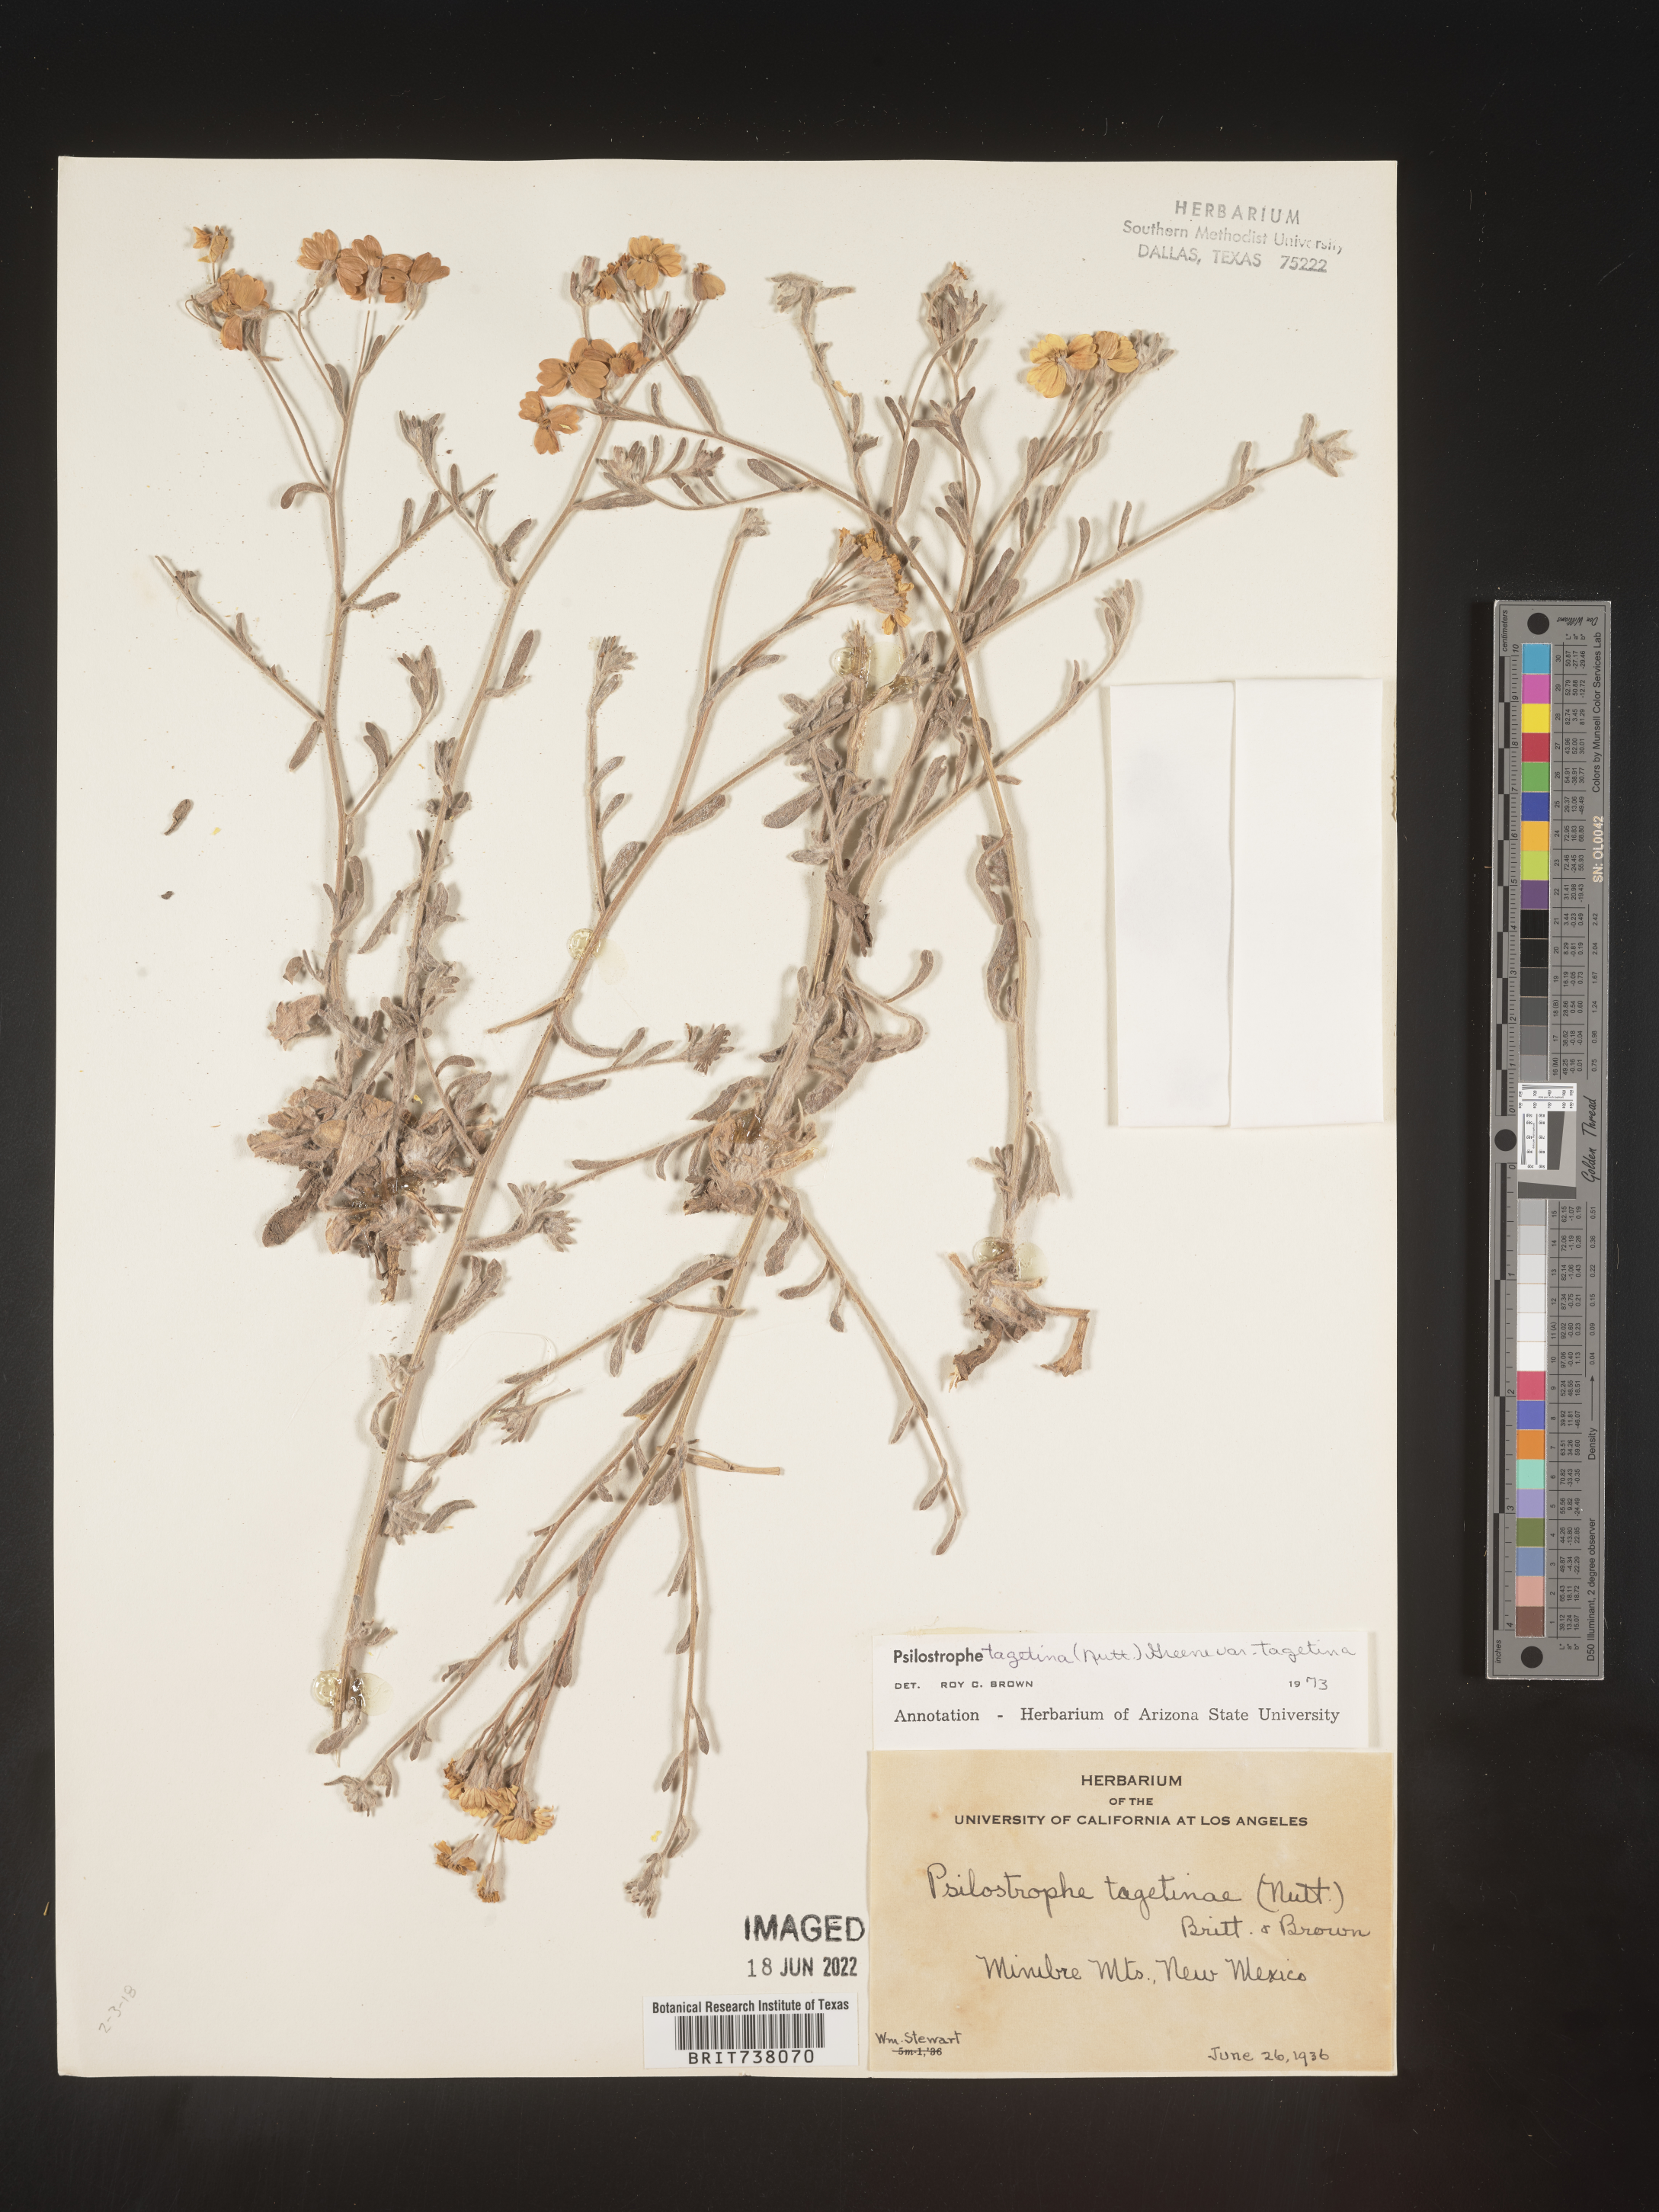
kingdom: Plantae
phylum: Tracheophyta
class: Magnoliopsida
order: Asterales
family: Asteraceae
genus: Psilostrophe
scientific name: Psilostrophe tagetina
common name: Marigold paper-flower
